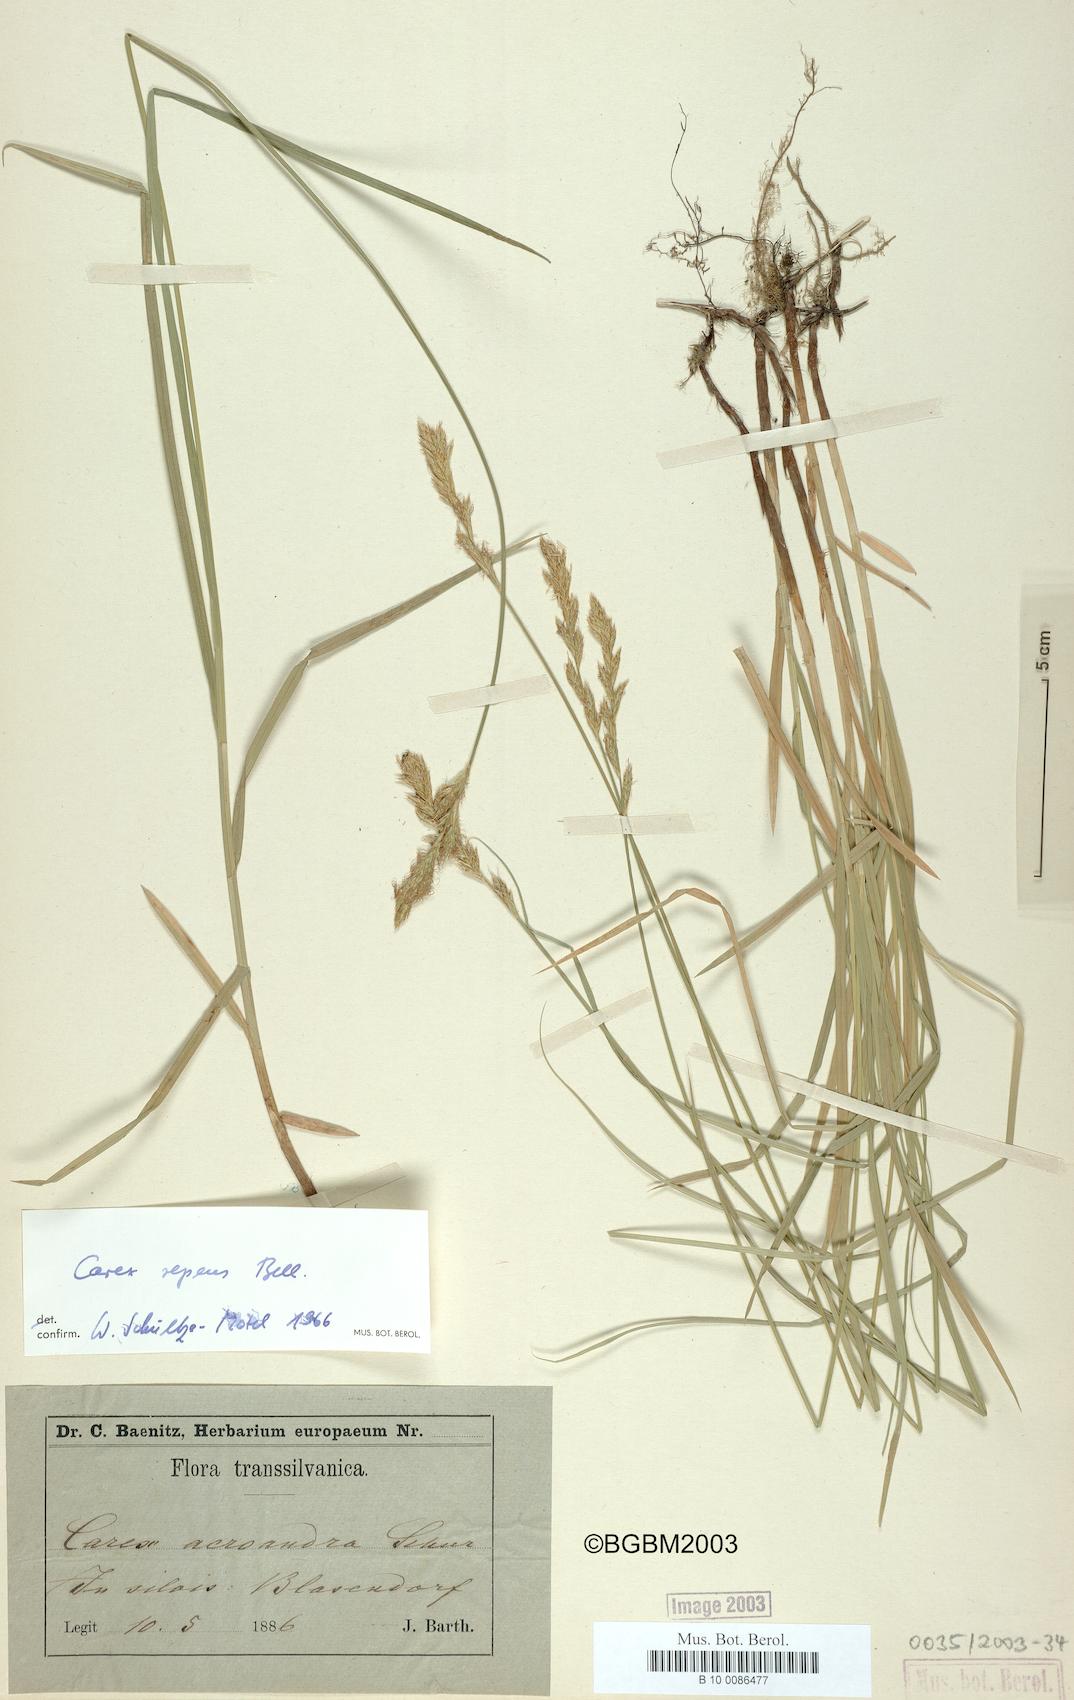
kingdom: Plantae
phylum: Tracheophyta
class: Liliopsida
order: Poales
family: Cyperaceae
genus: Carex
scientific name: Carex repens
